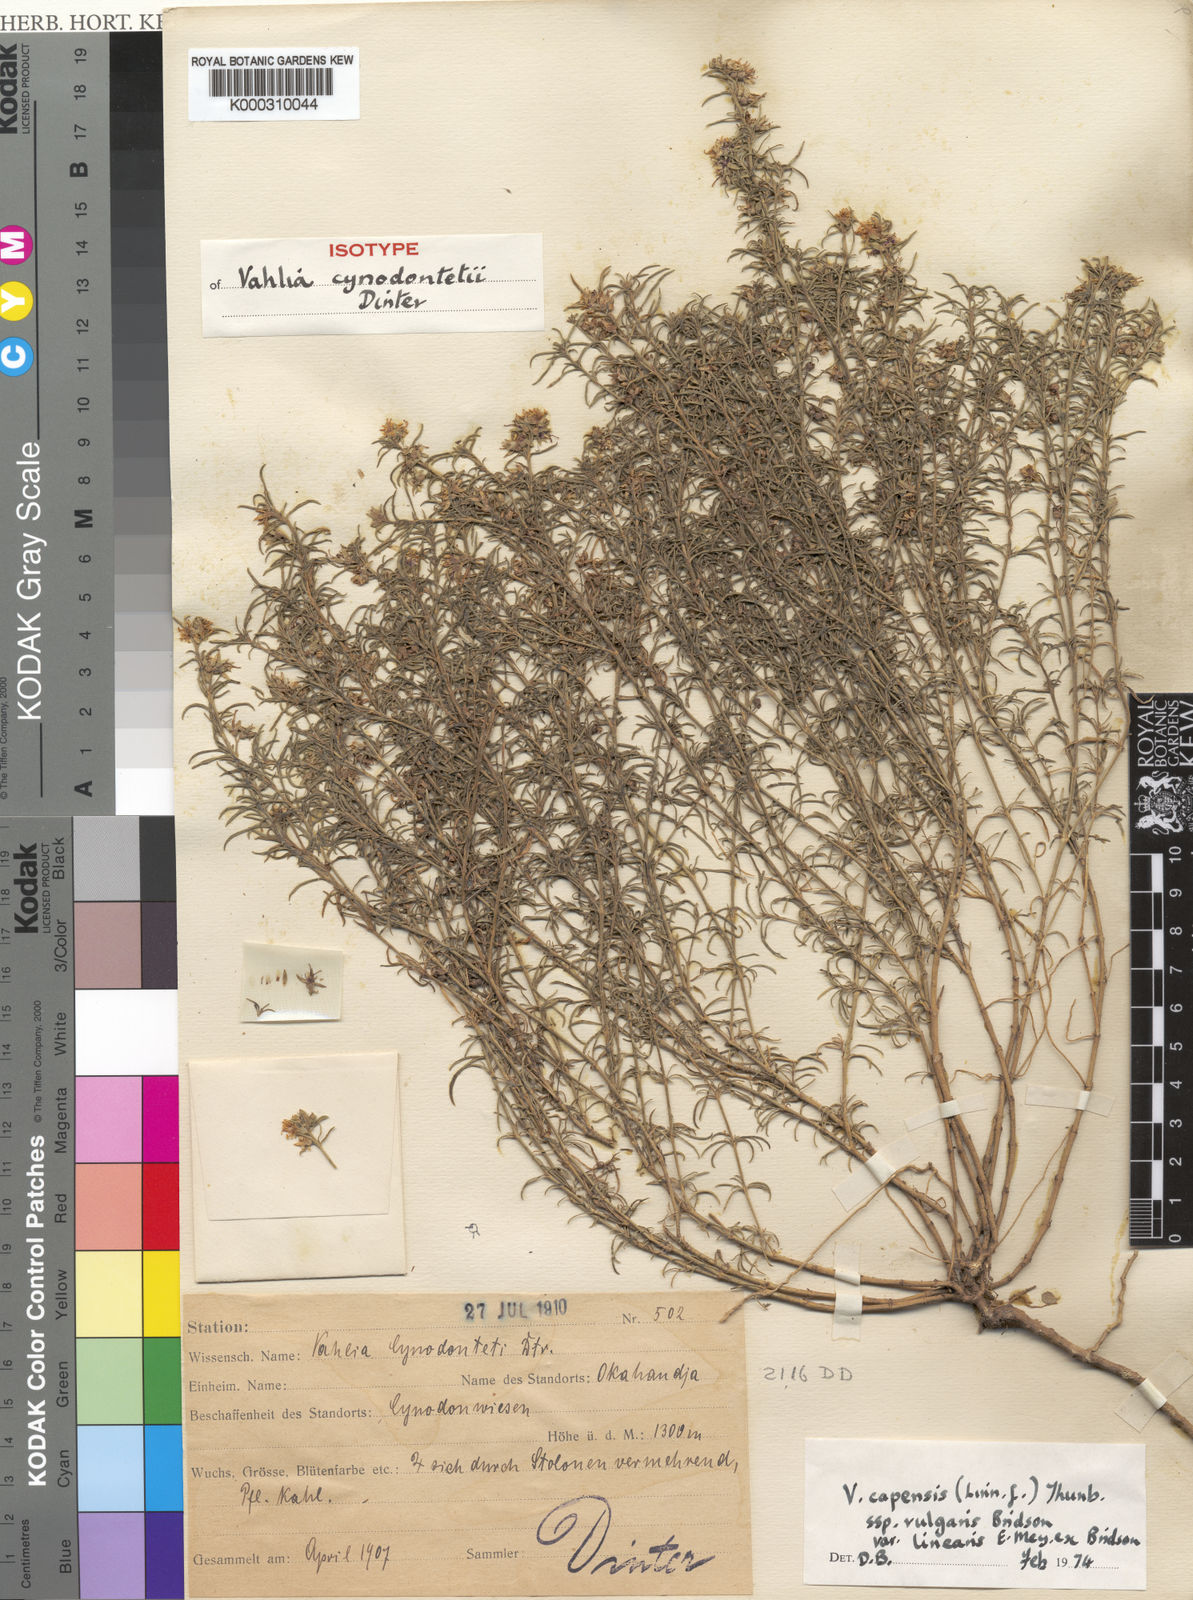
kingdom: Plantae
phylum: Tracheophyta
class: Magnoliopsida
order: Vahliales
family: Vahliaceae
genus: Vahlia
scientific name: Vahlia capensis
